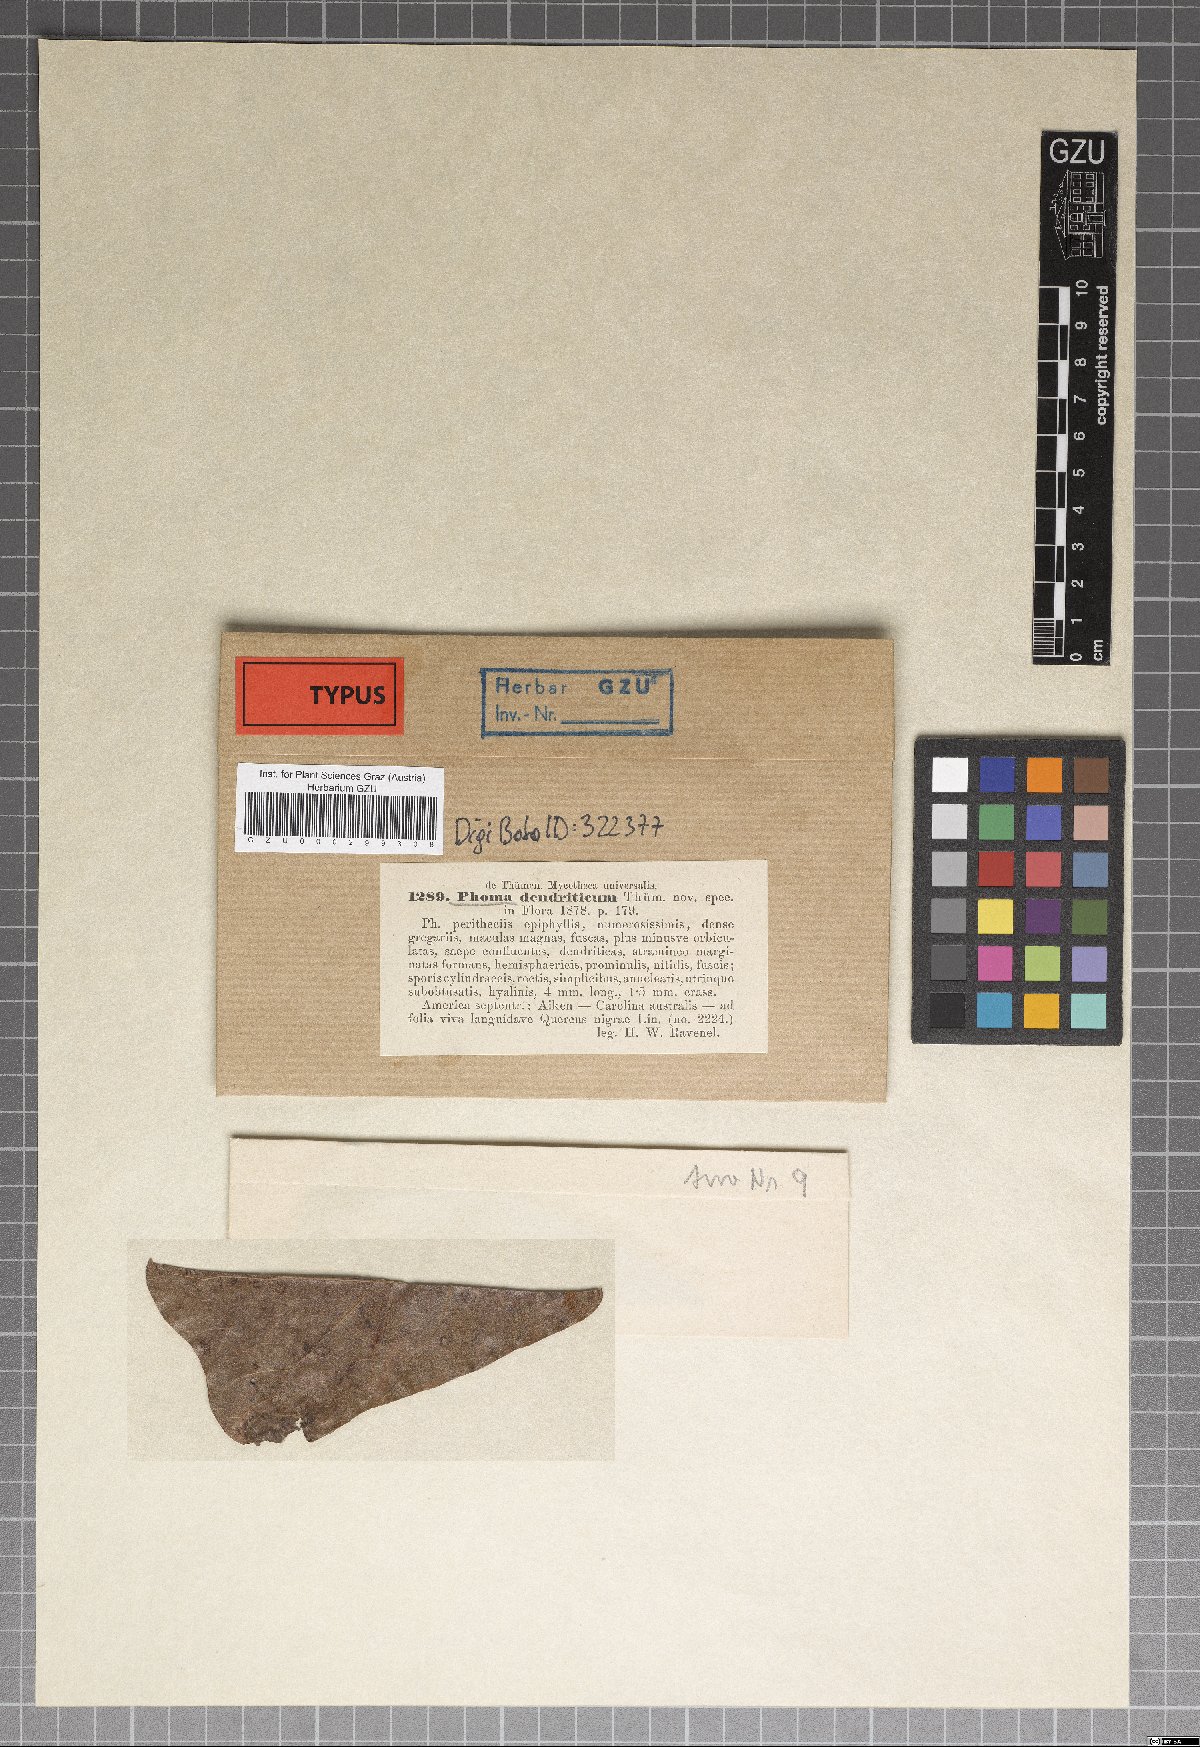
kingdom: Fungi
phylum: Ascomycota
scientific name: Ascomycota
